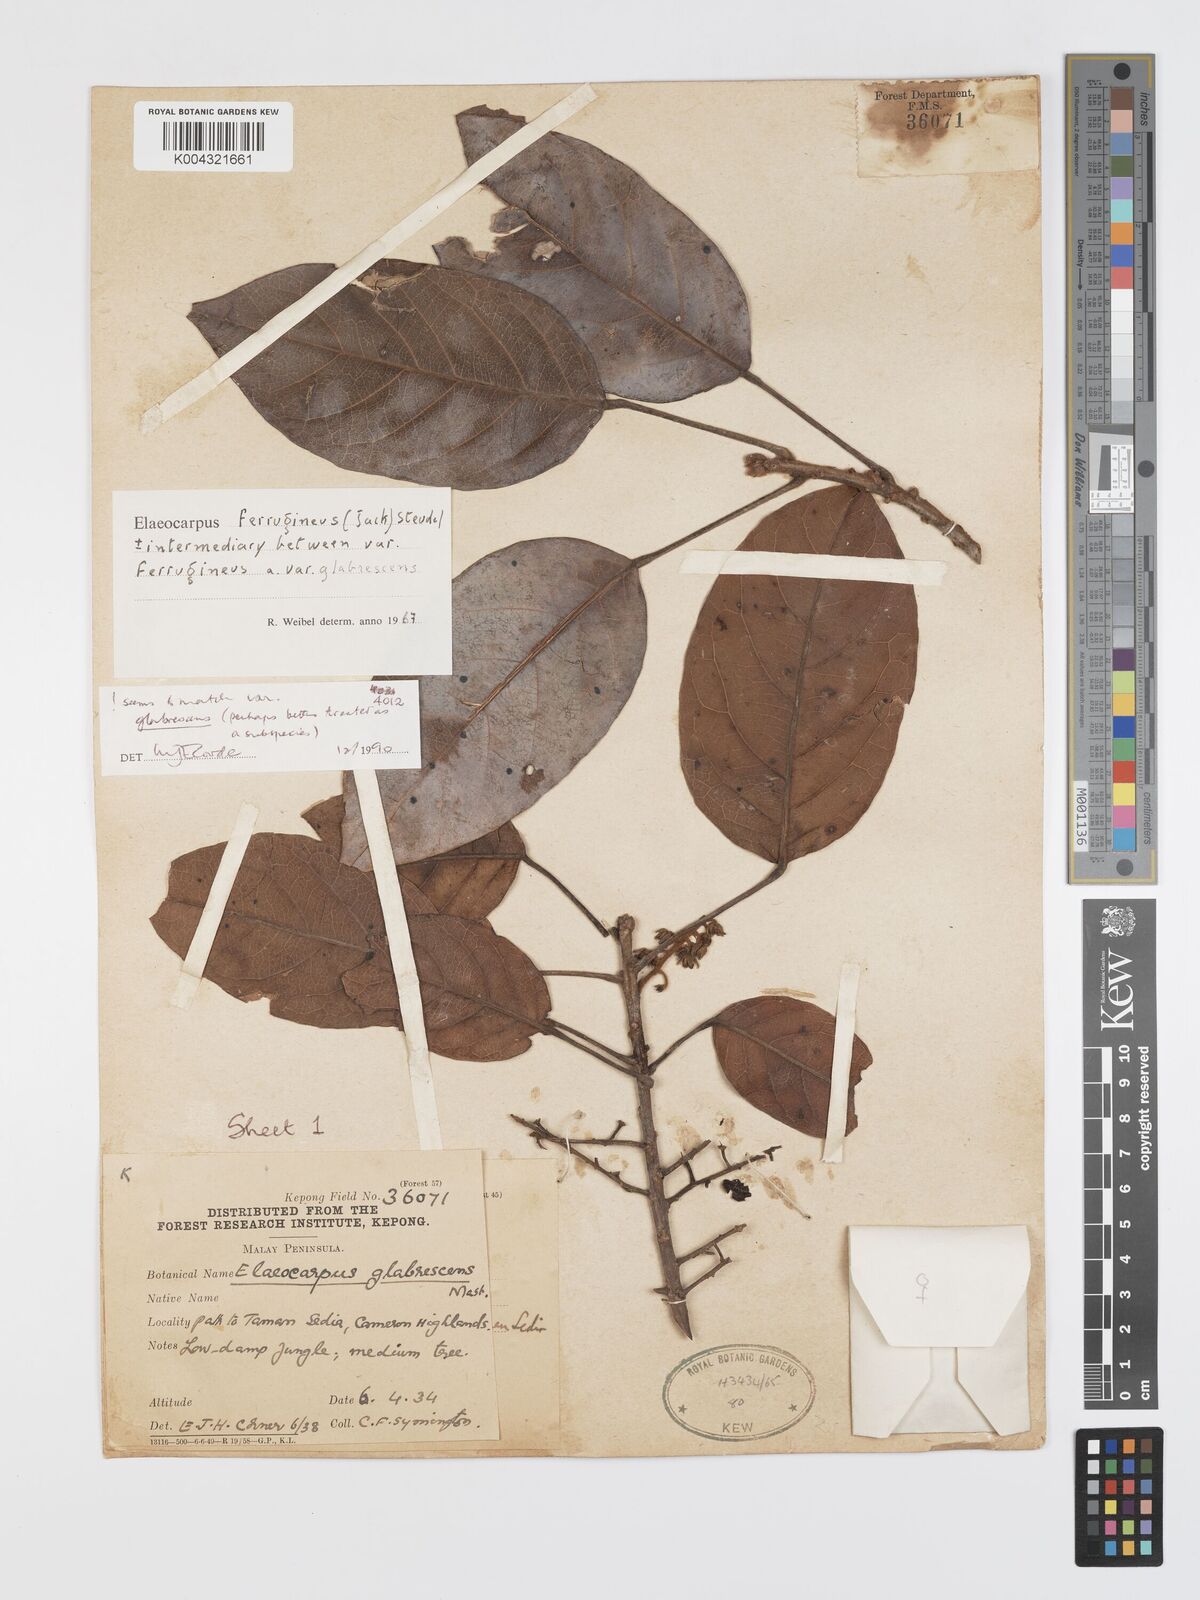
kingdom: Plantae
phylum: Tracheophyta
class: Magnoliopsida
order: Oxalidales
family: Elaeocarpaceae
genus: Elaeocarpus
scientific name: Elaeocarpus ferrugineus
